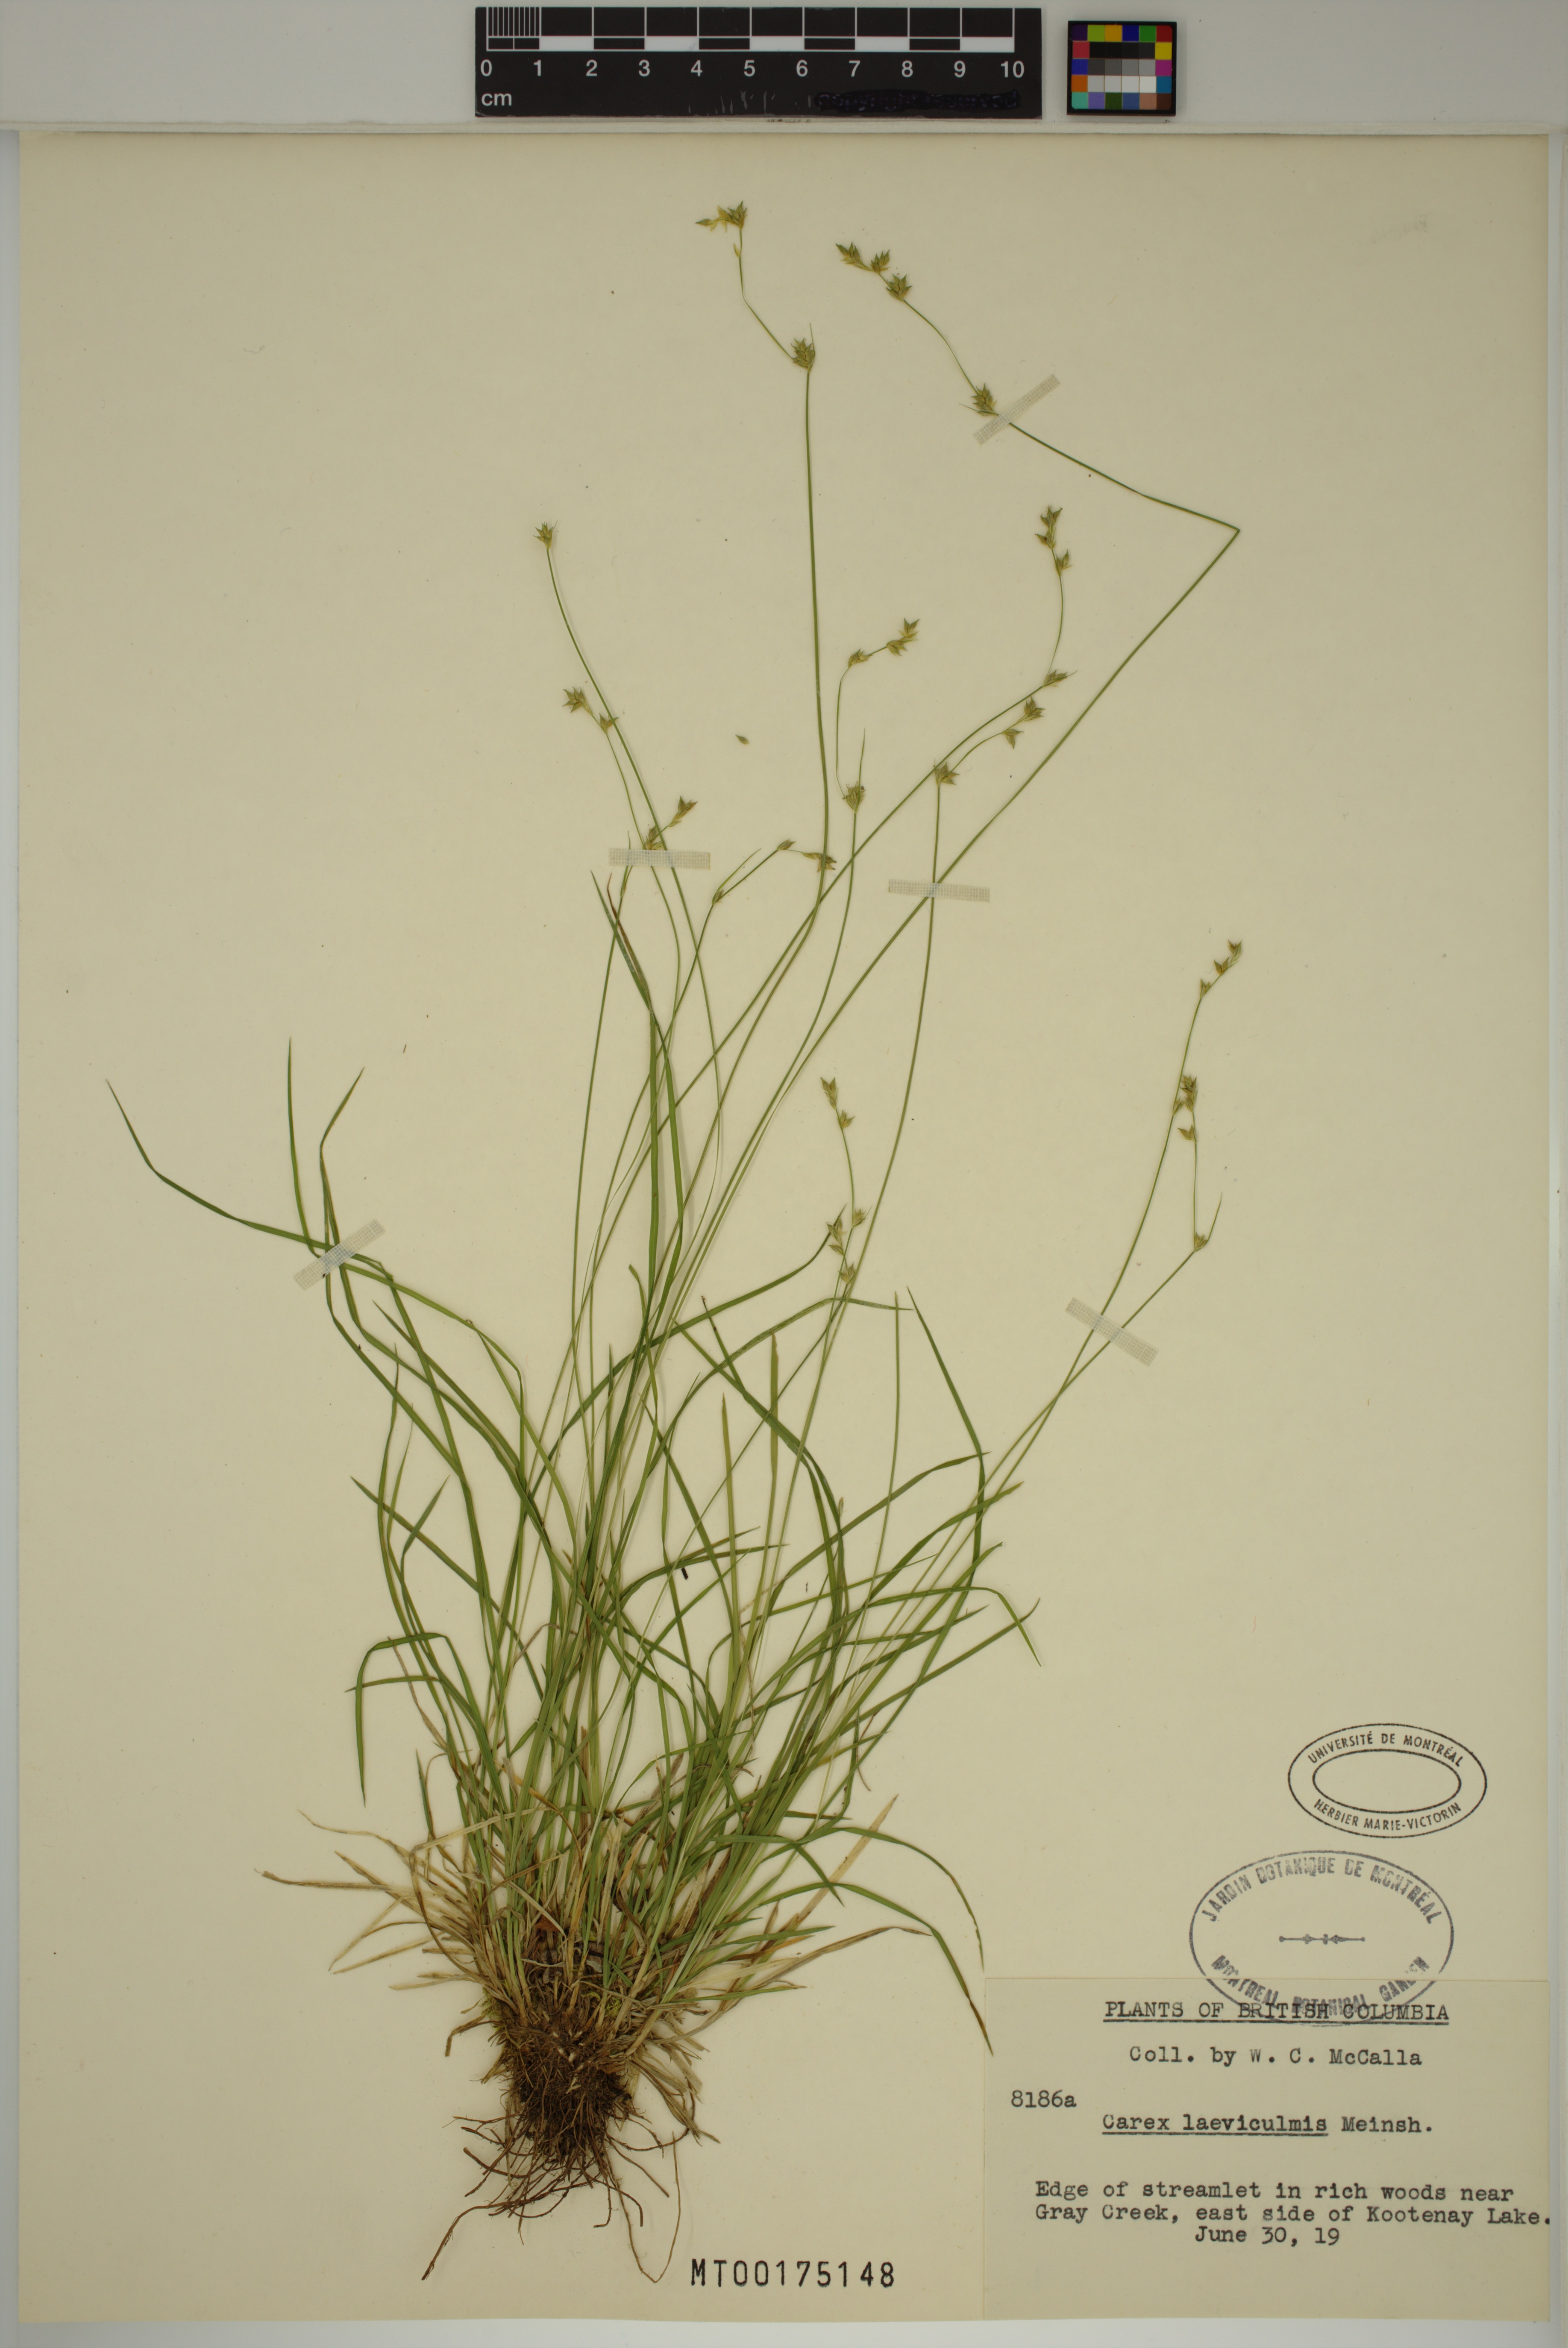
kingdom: Plantae
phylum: Tracheophyta
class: Liliopsida
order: Poales
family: Cyperaceae
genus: Carex
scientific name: Carex laeviculmis
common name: Smooth sedge
